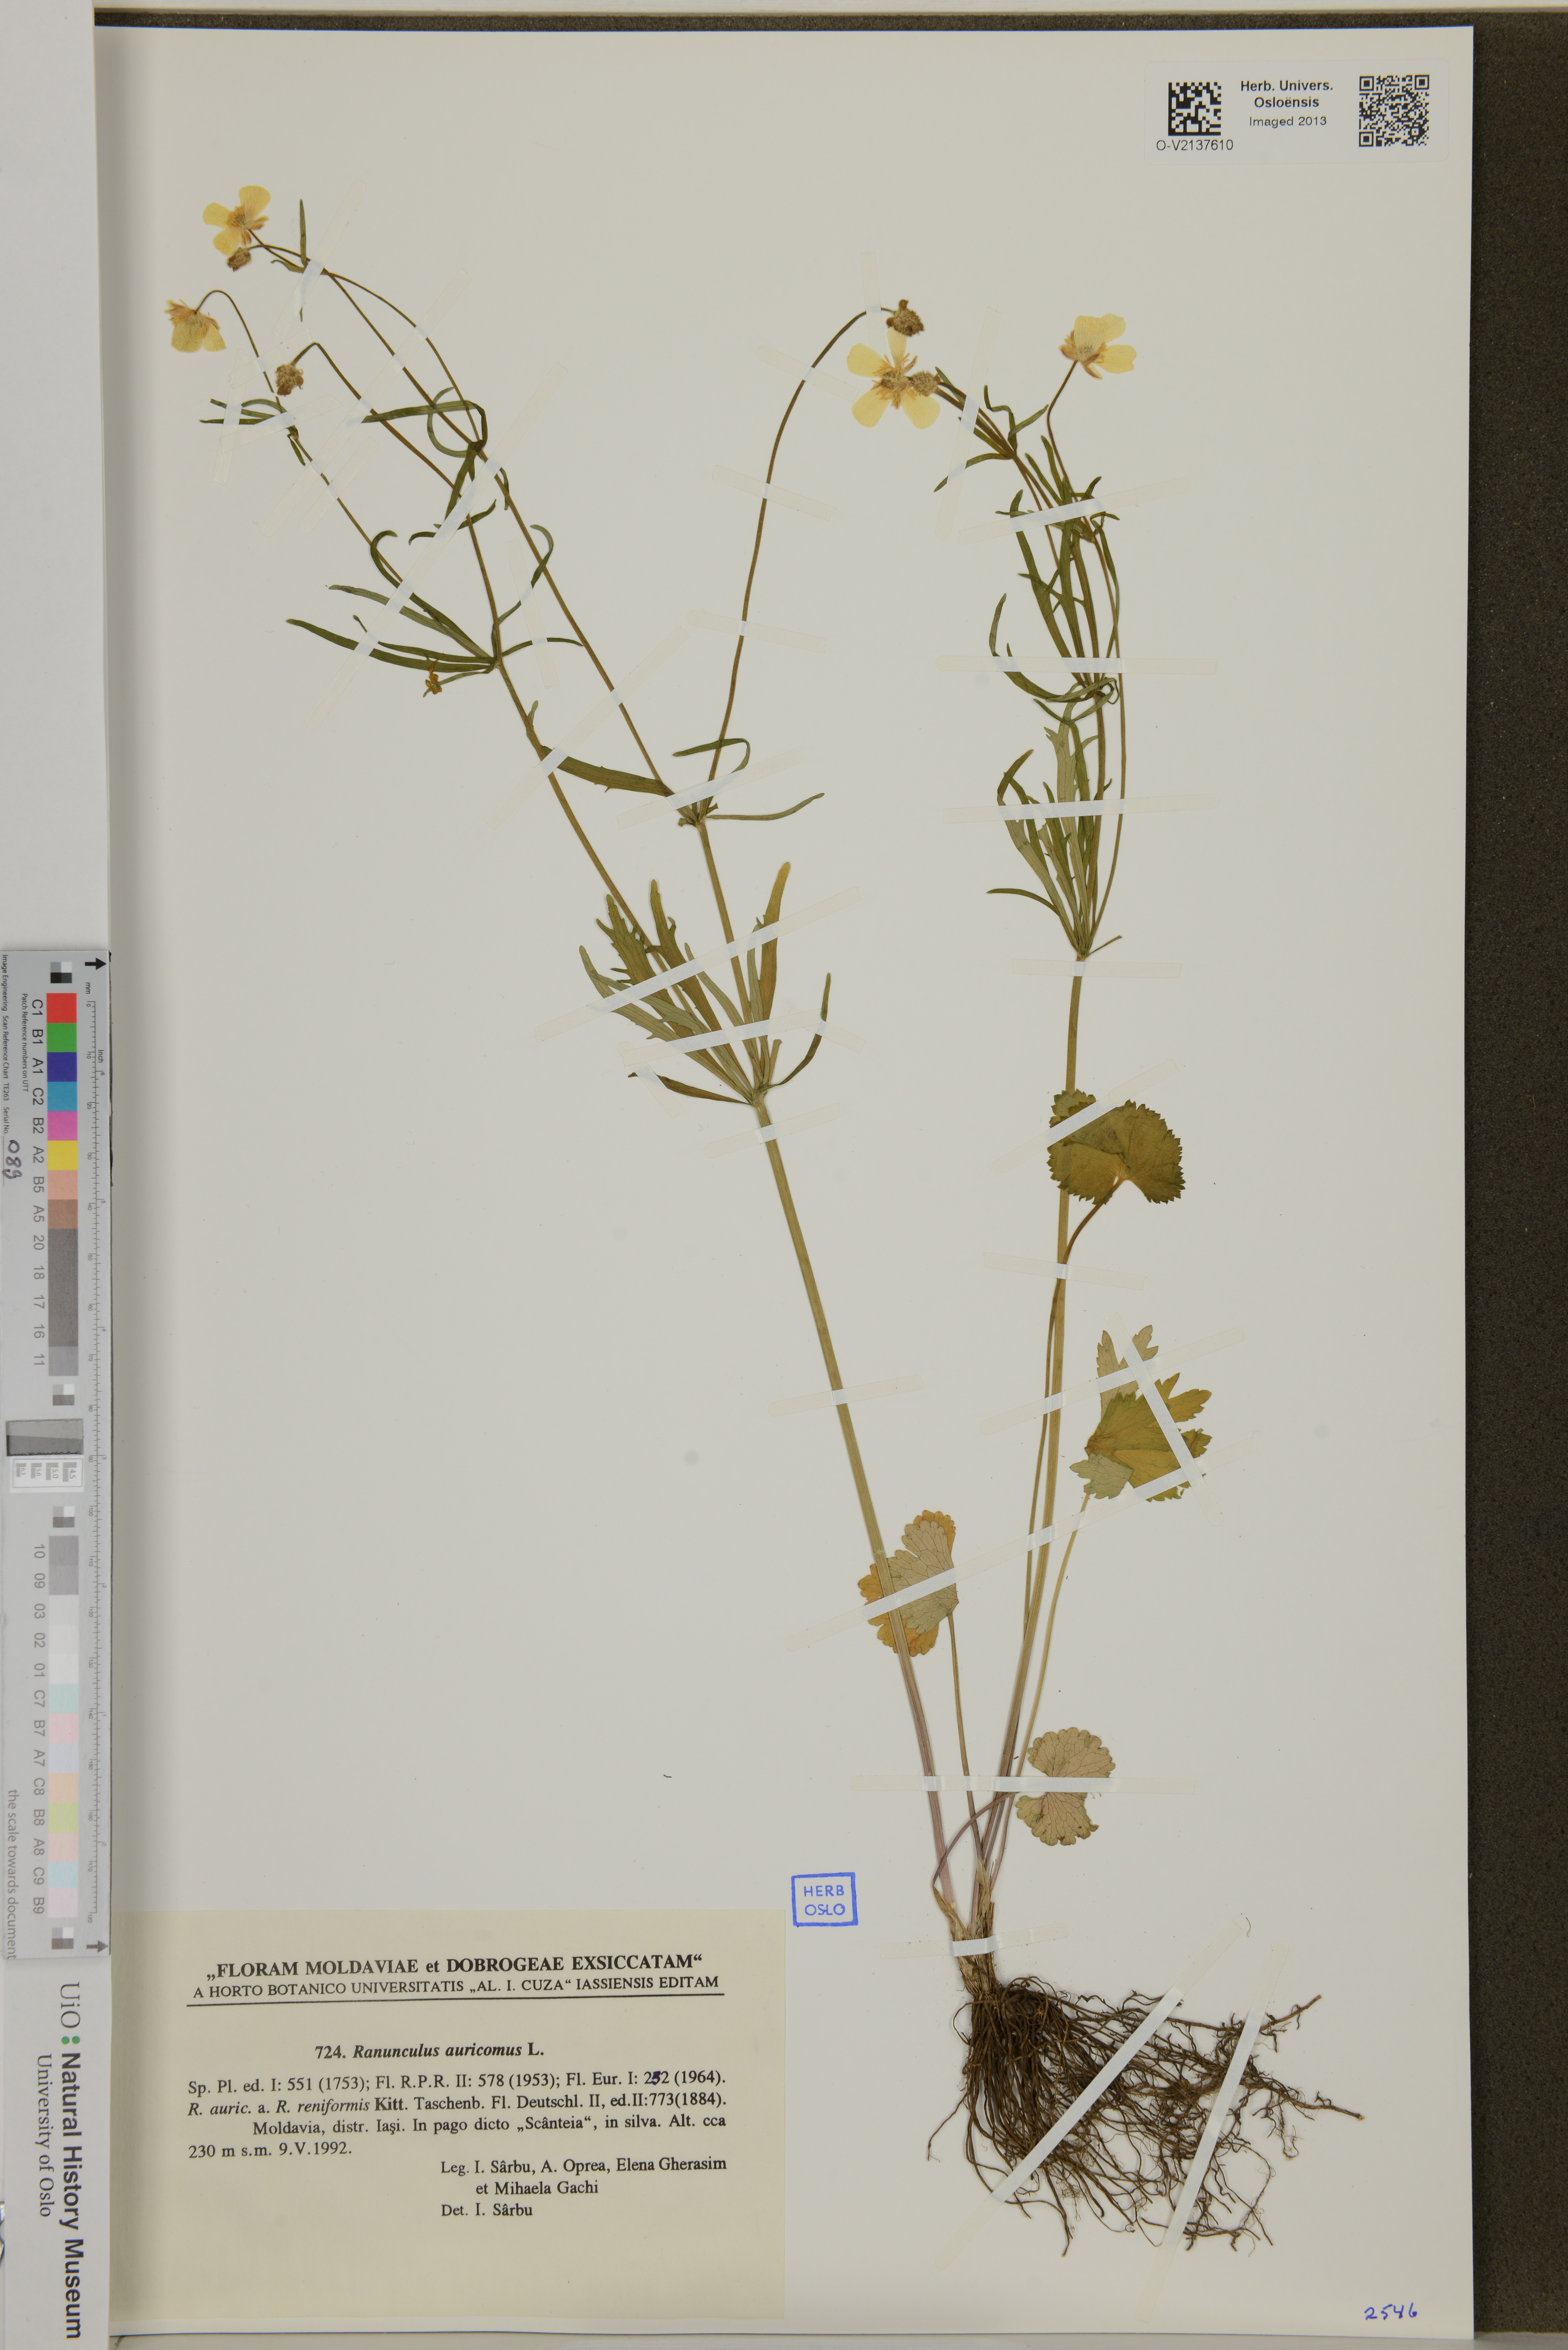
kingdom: Plantae
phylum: Tracheophyta
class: Magnoliopsida
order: Ranunculales
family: Ranunculaceae
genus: Ranunculus
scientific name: Ranunculus auricomus
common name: Goldilocks buttercup
